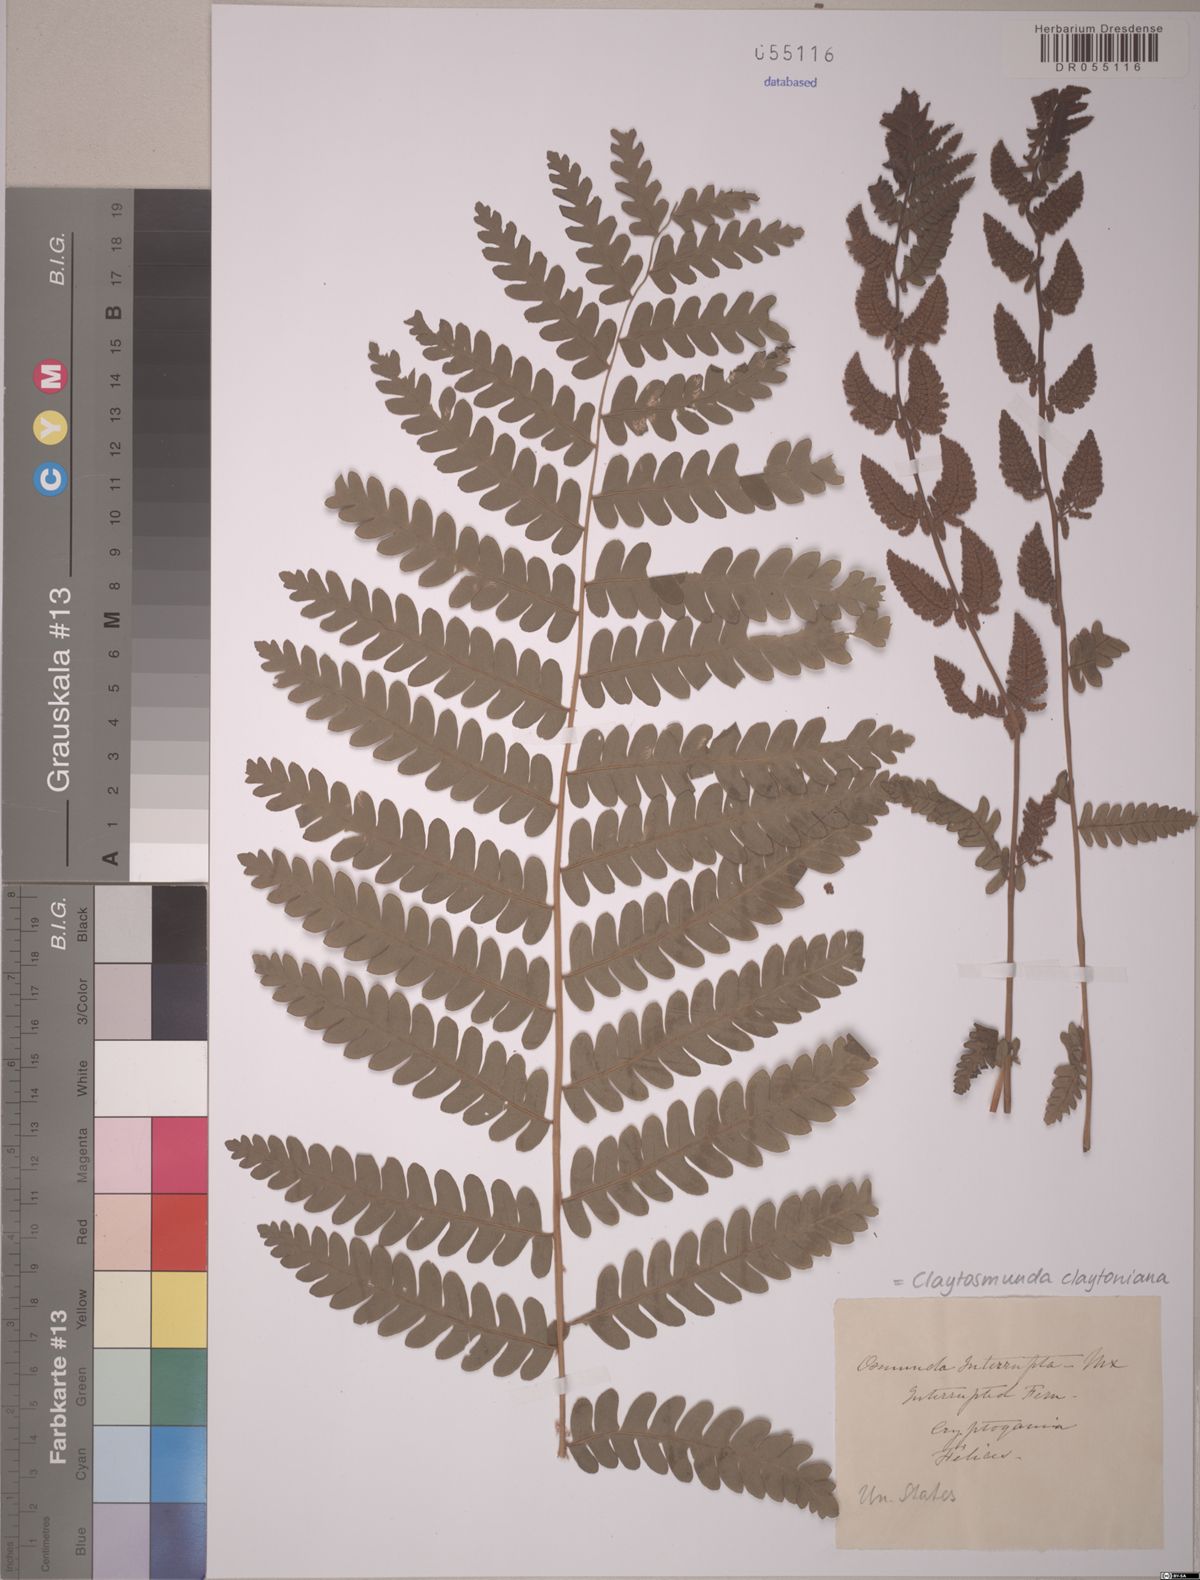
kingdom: Plantae
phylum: Tracheophyta
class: Polypodiopsida
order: Osmundales
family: Osmundaceae
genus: Claytosmunda
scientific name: Claytosmunda claytoniana
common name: Clayton's fern
